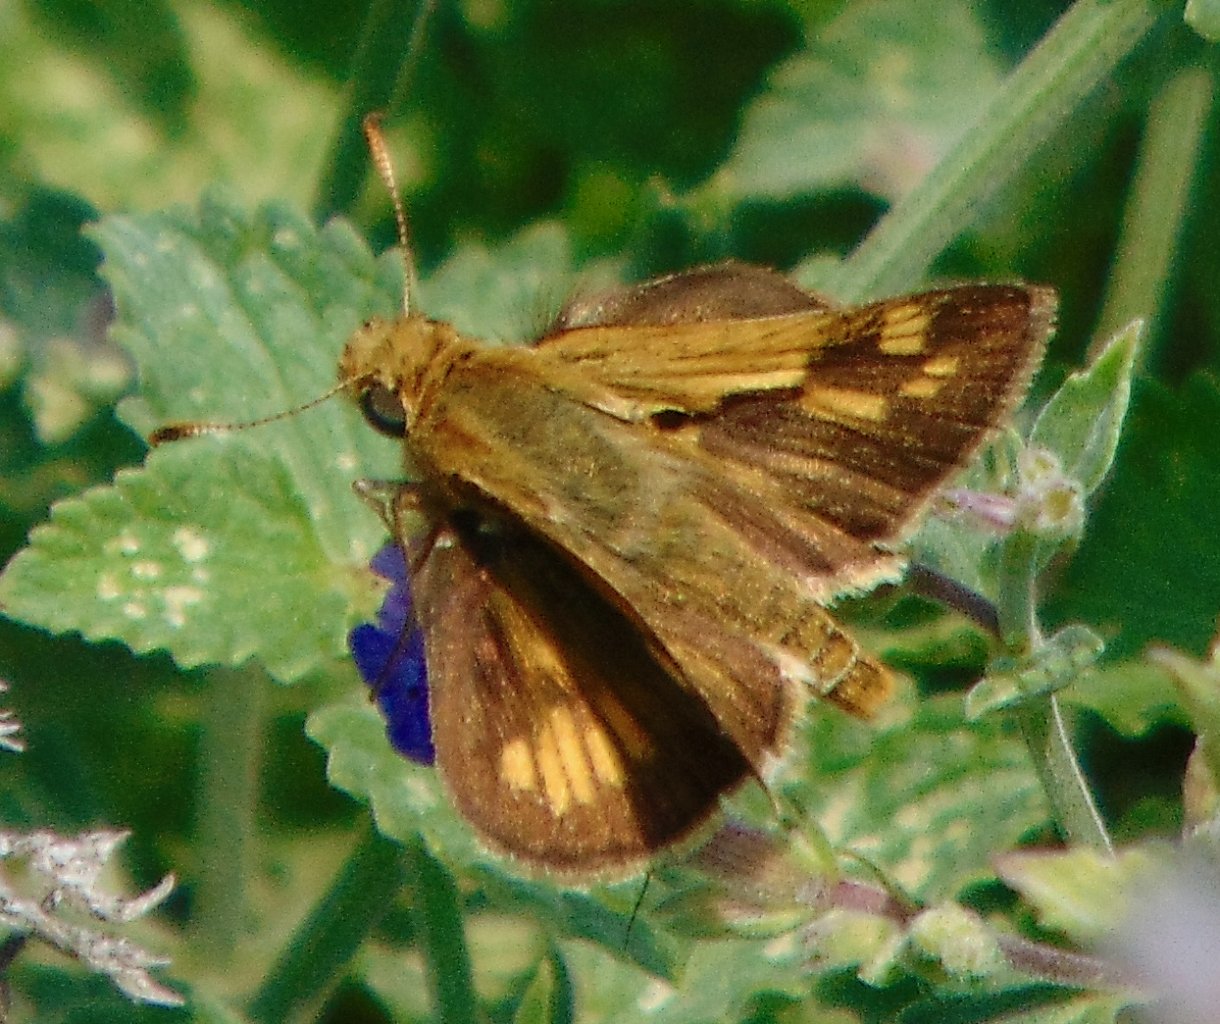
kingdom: Animalia
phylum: Arthropoda
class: Insecta
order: Lepidoptera
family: Hesperiidae
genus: Polites
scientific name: Polites coras
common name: Peck's Skipper
